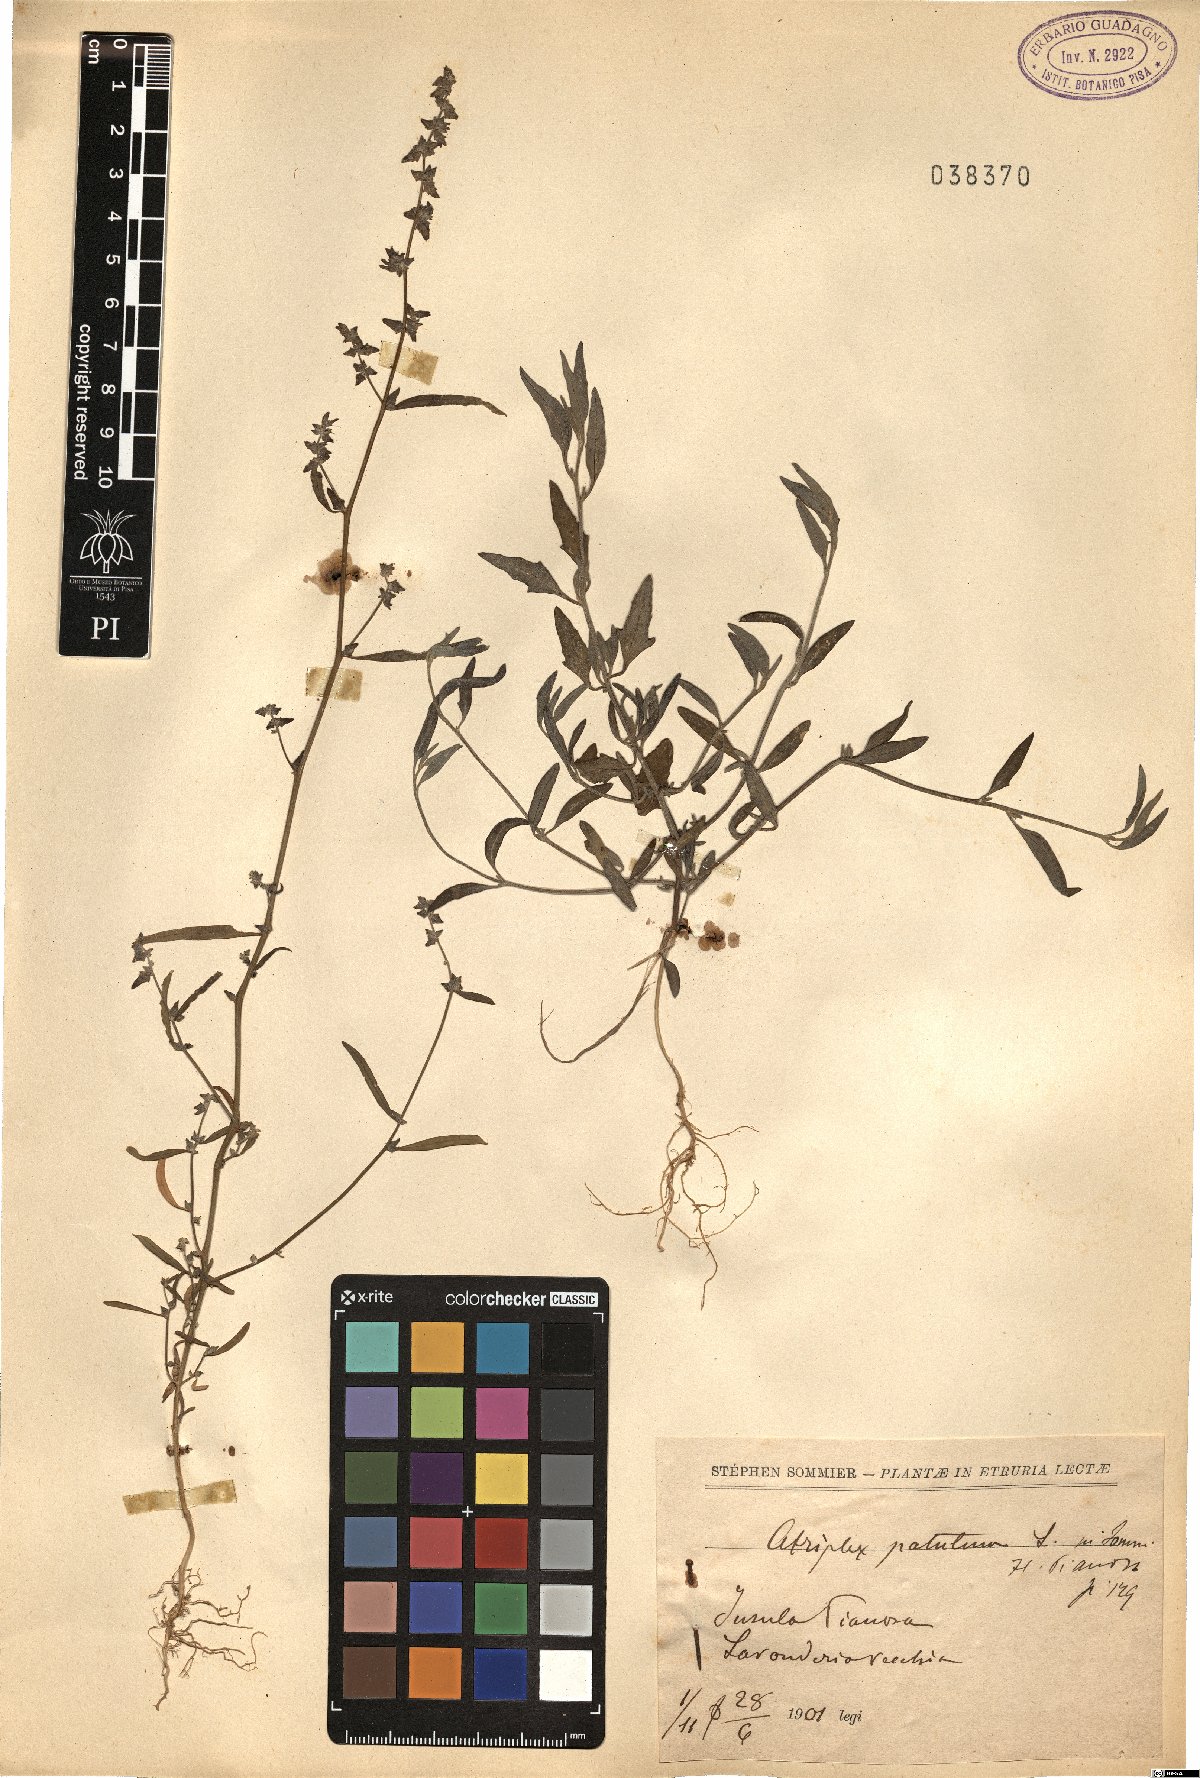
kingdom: Plantae
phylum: Tracheophyta
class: Magnoliopsida
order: Caryophyllales
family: Amaranthaceae
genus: Atriplex
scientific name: Atriplex patula
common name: Common orache
